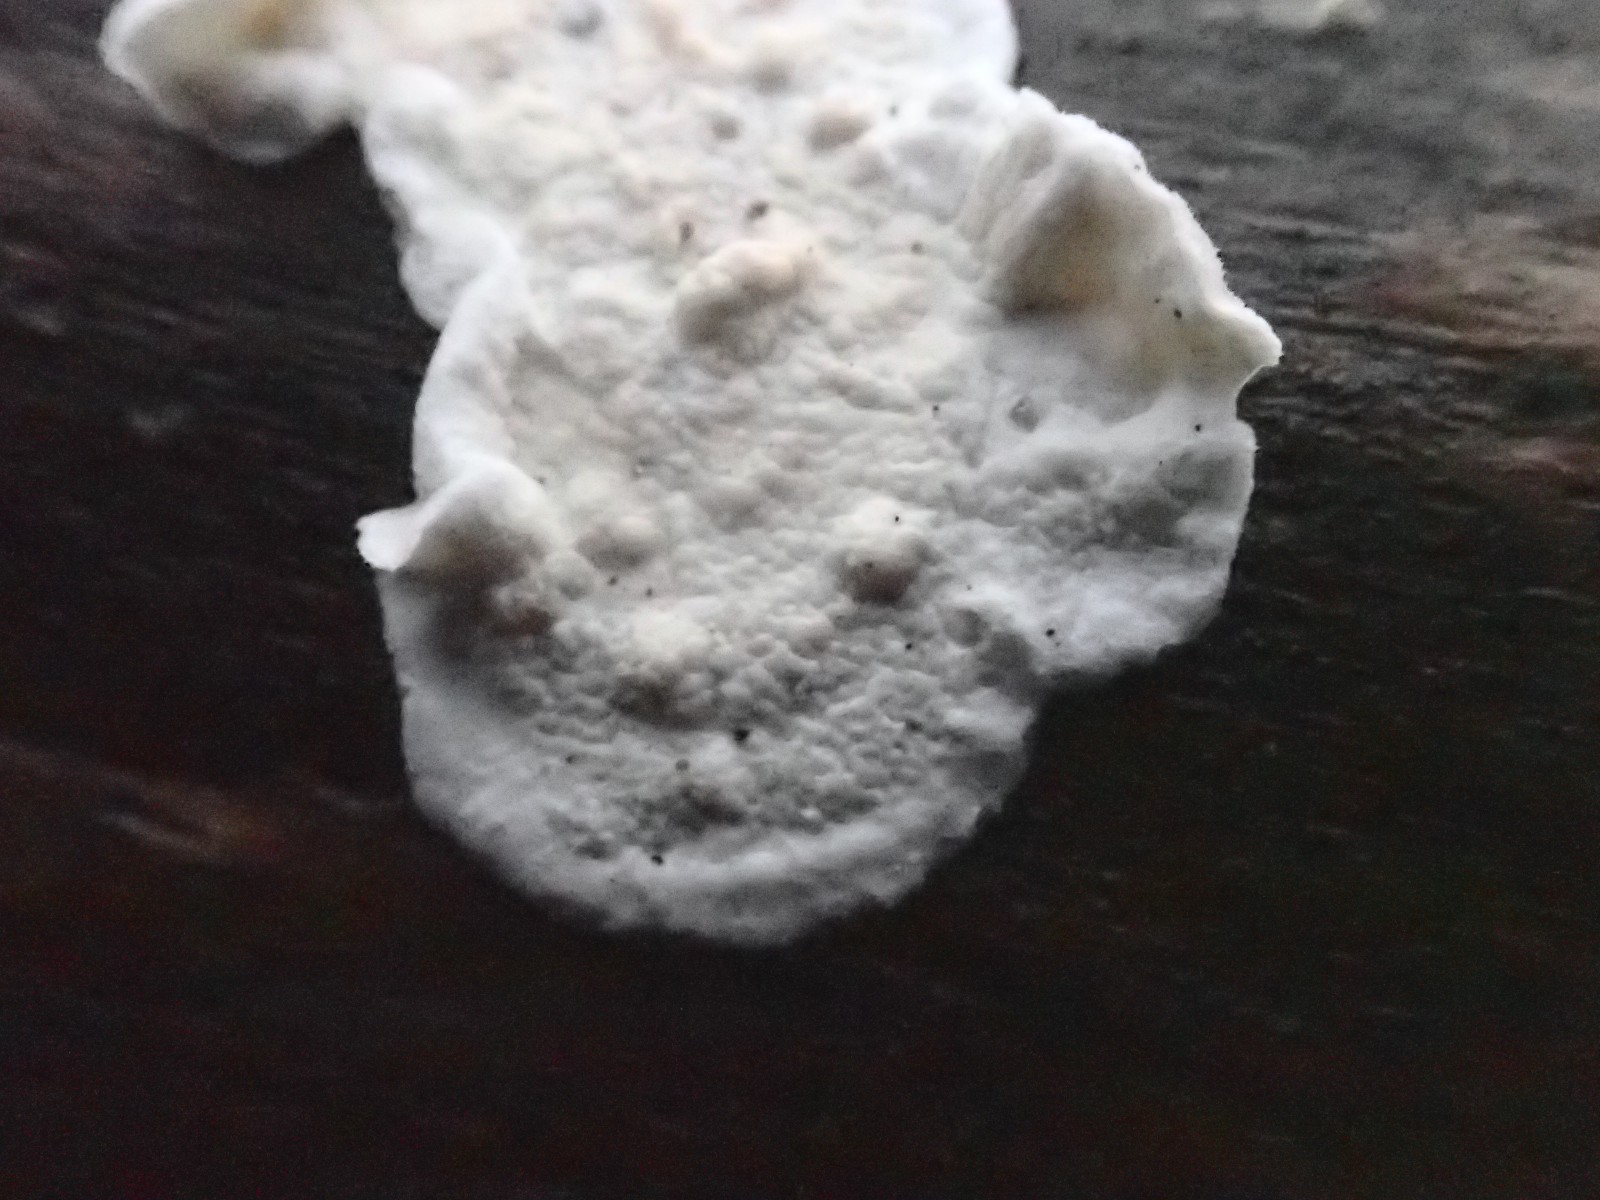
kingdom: Fungi
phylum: Basidiomycota
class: Agaricomycetes
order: Polyporales
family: Irpicaceae
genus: Byssomerulius
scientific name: Byssomerulius corium
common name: læder-åresvamp
